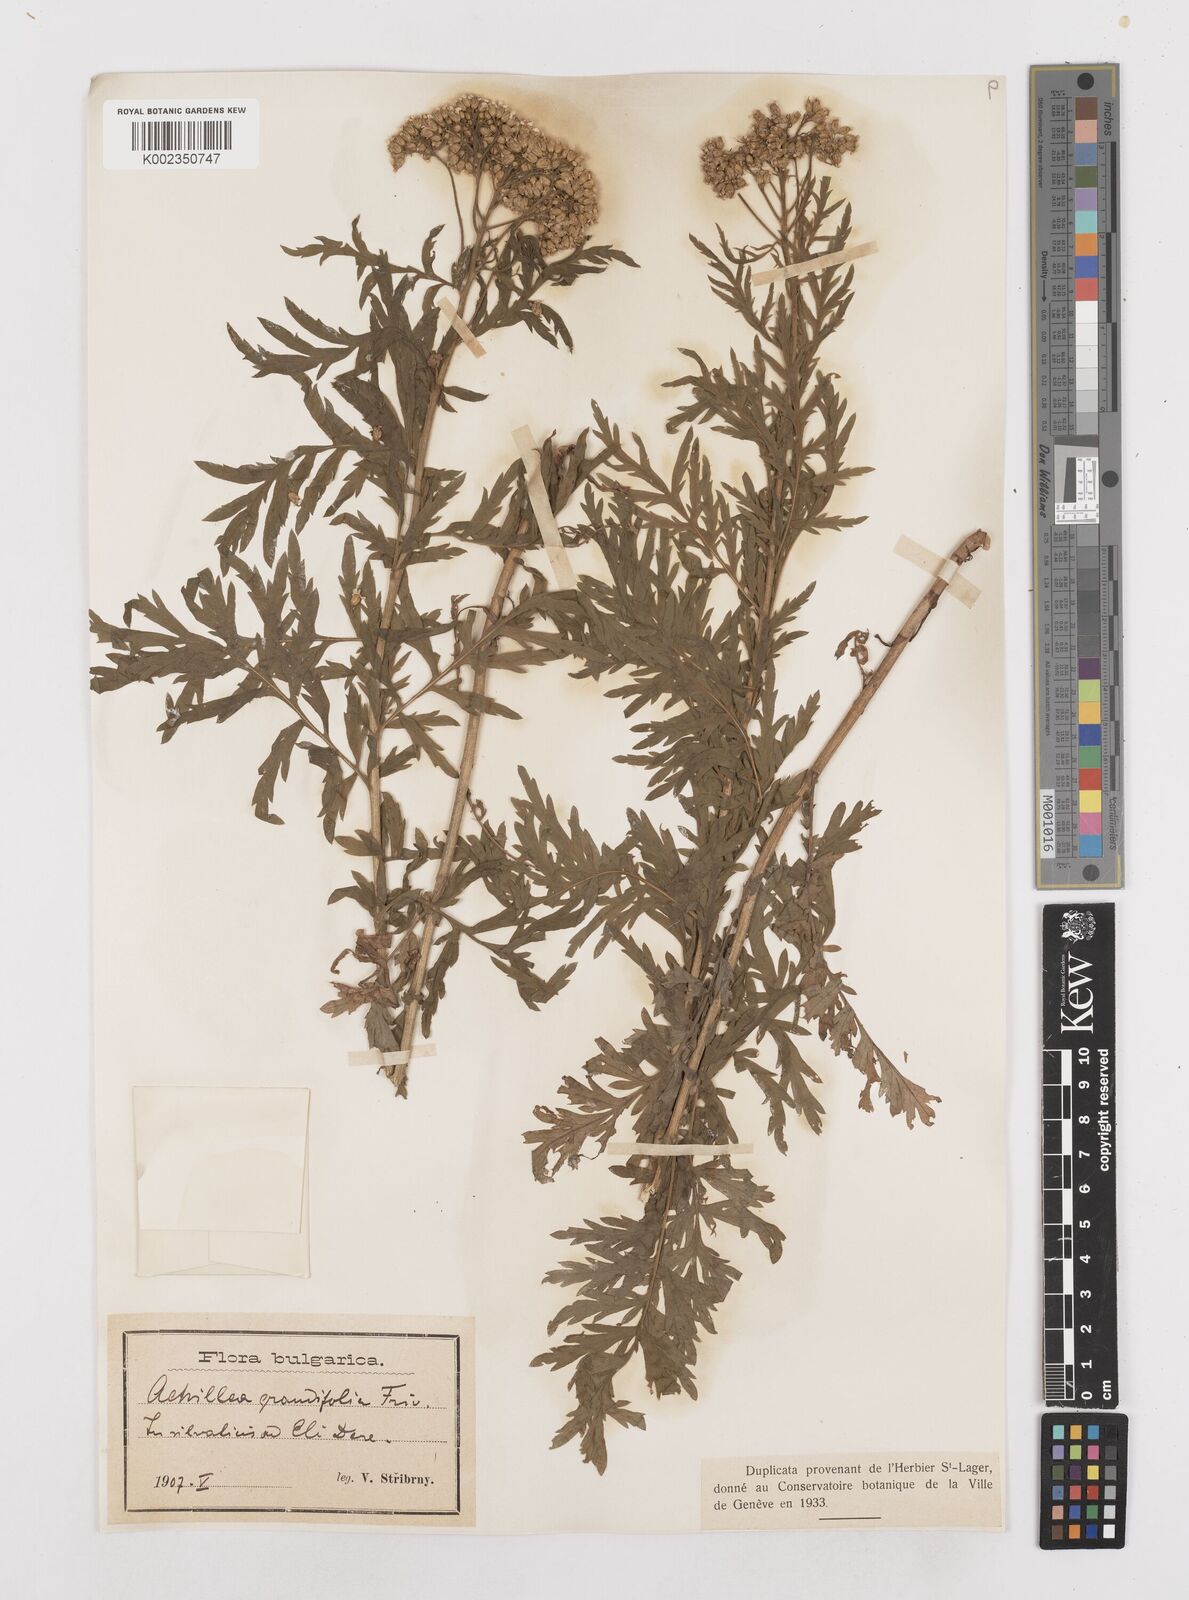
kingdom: Plantae
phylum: Tracheophyta
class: Magnoliopsida
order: Asterales
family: Asteraceae
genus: Achillea
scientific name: Achillea grandifolia
